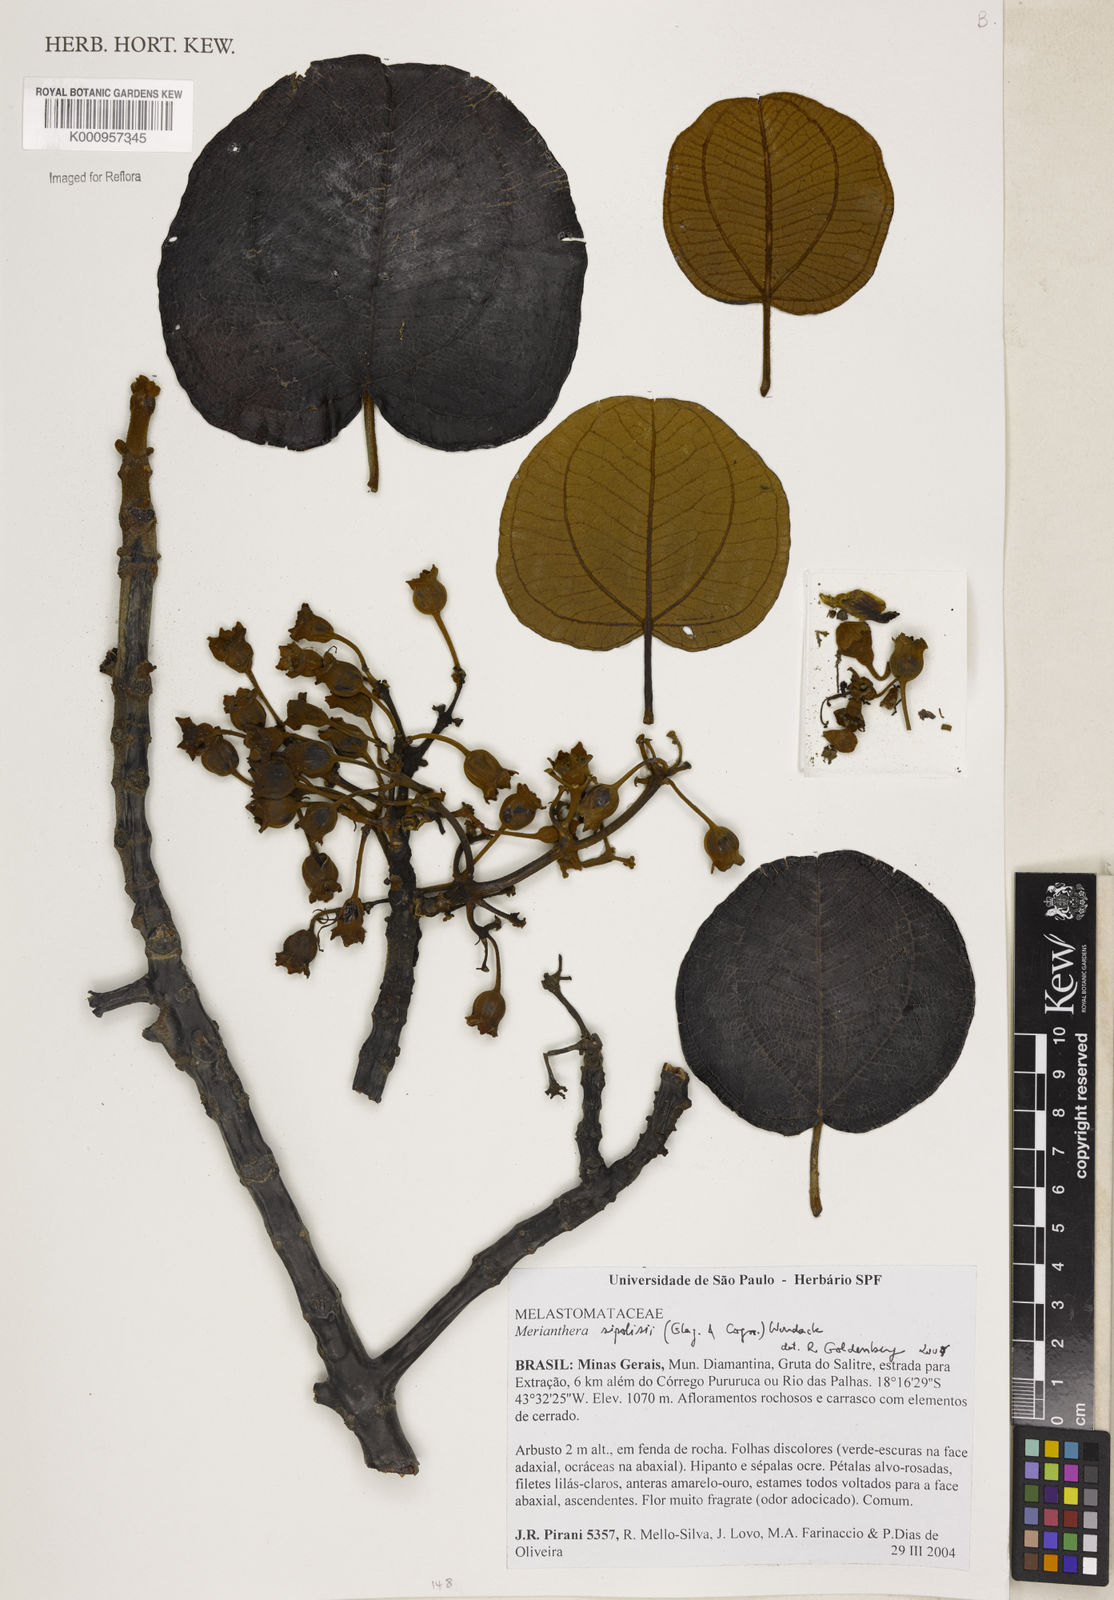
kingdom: Plantae
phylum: Tracheophyta
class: Magnoliopsida
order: Myrtales
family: Melastomataceae
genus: Merianthera
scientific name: Merianthera sipolisii
